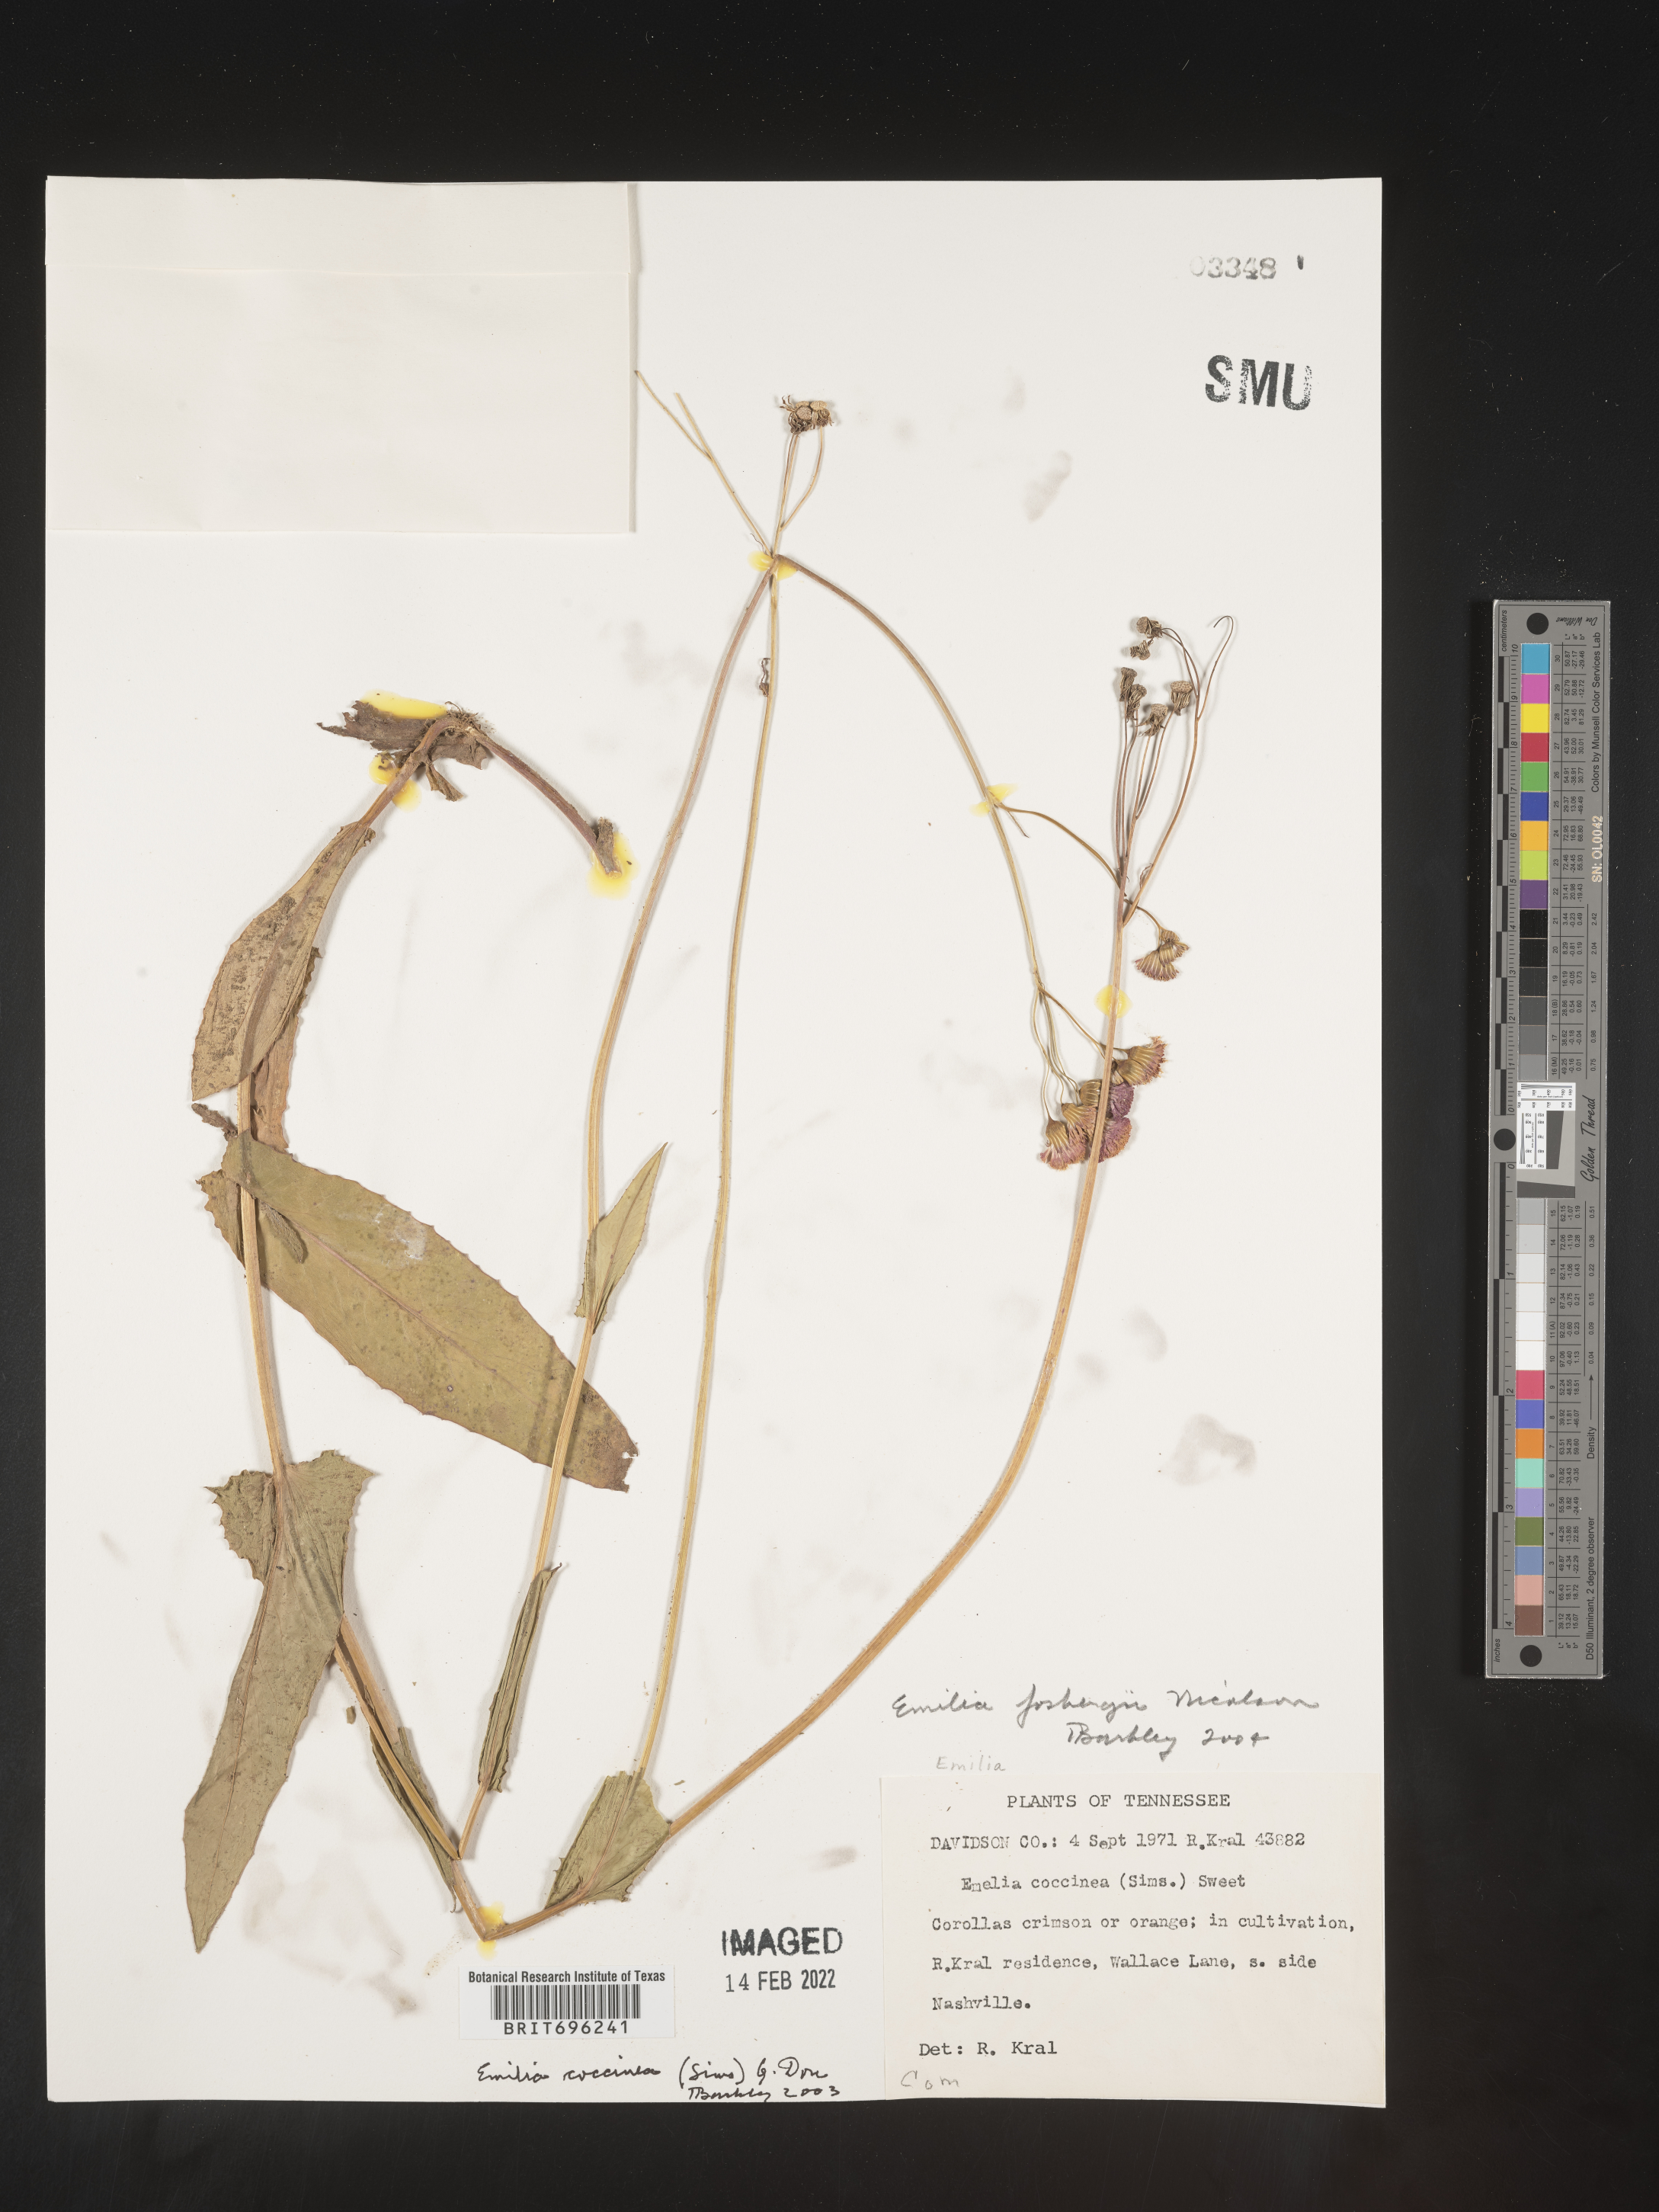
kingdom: Plantae
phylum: Tracheophyta
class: Magnoliopsida
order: Asterales
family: Asteraceae
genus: Emilia
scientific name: Emilia fosbergii
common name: Florida tasselflower
